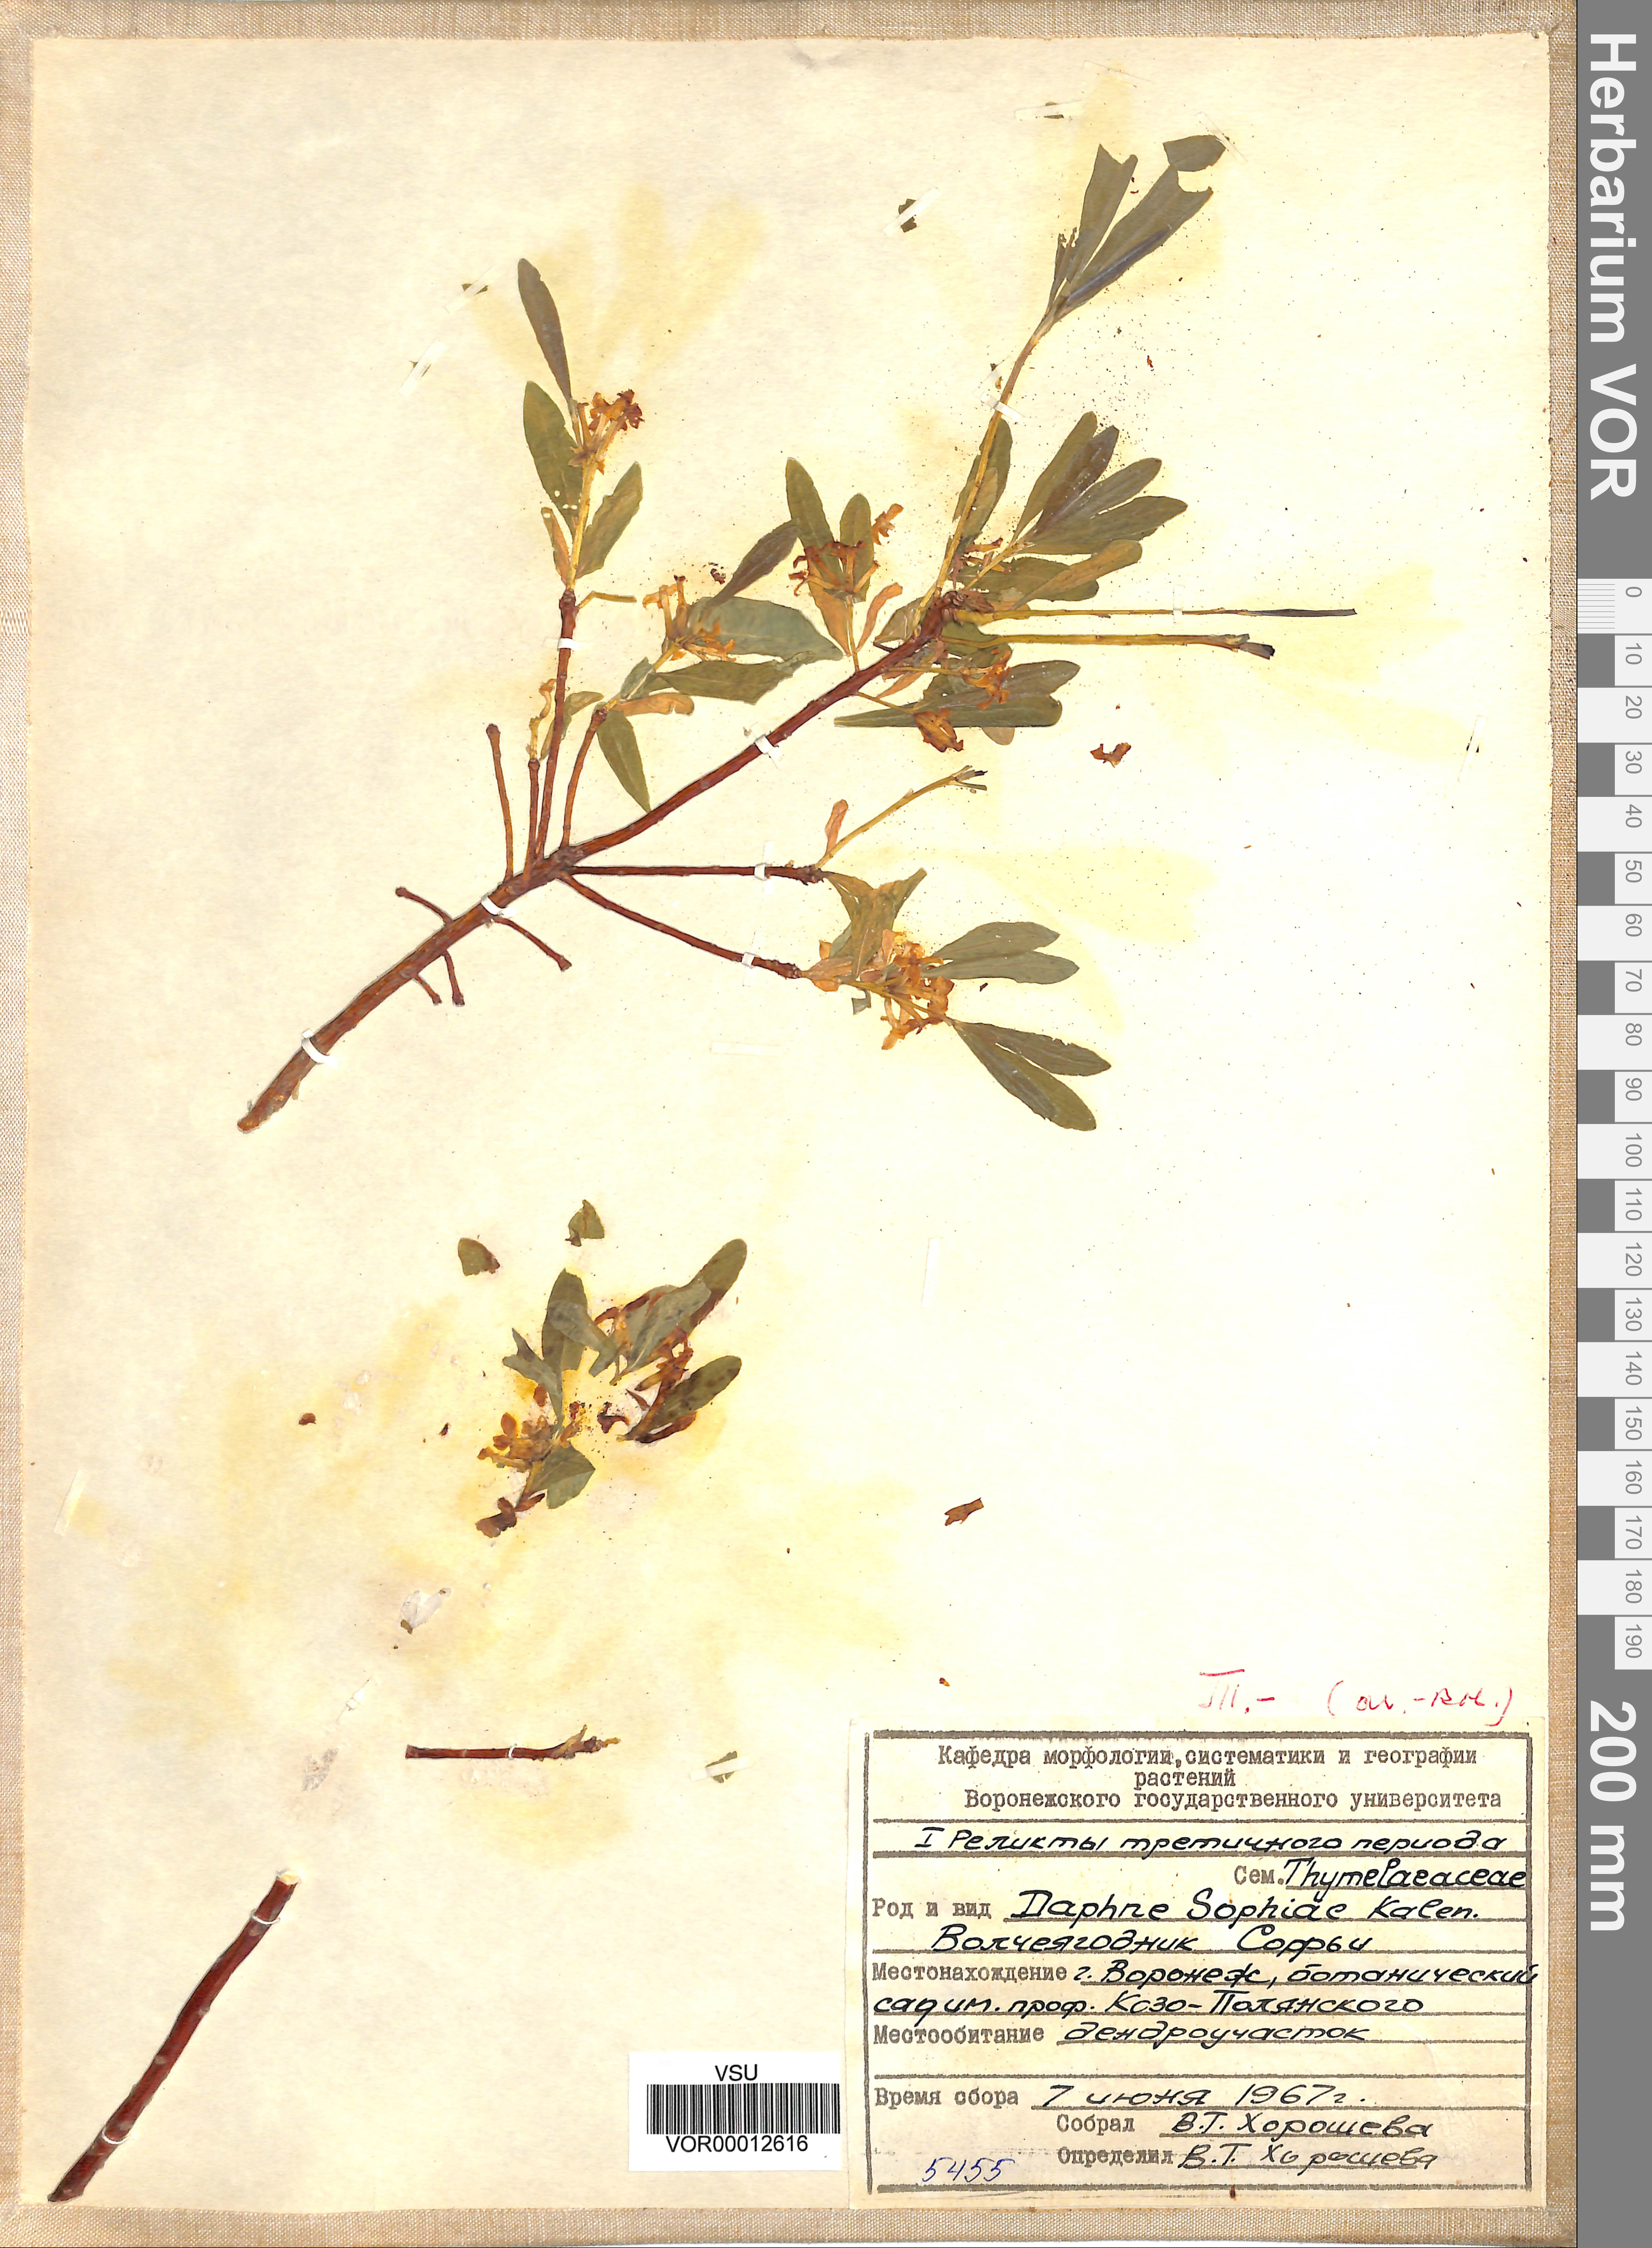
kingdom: Plantae
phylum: Tracheophyta
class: Magnoliopsida
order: Malvales
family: Thymelaeaceae
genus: Daphne
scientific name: Daphne sophia
